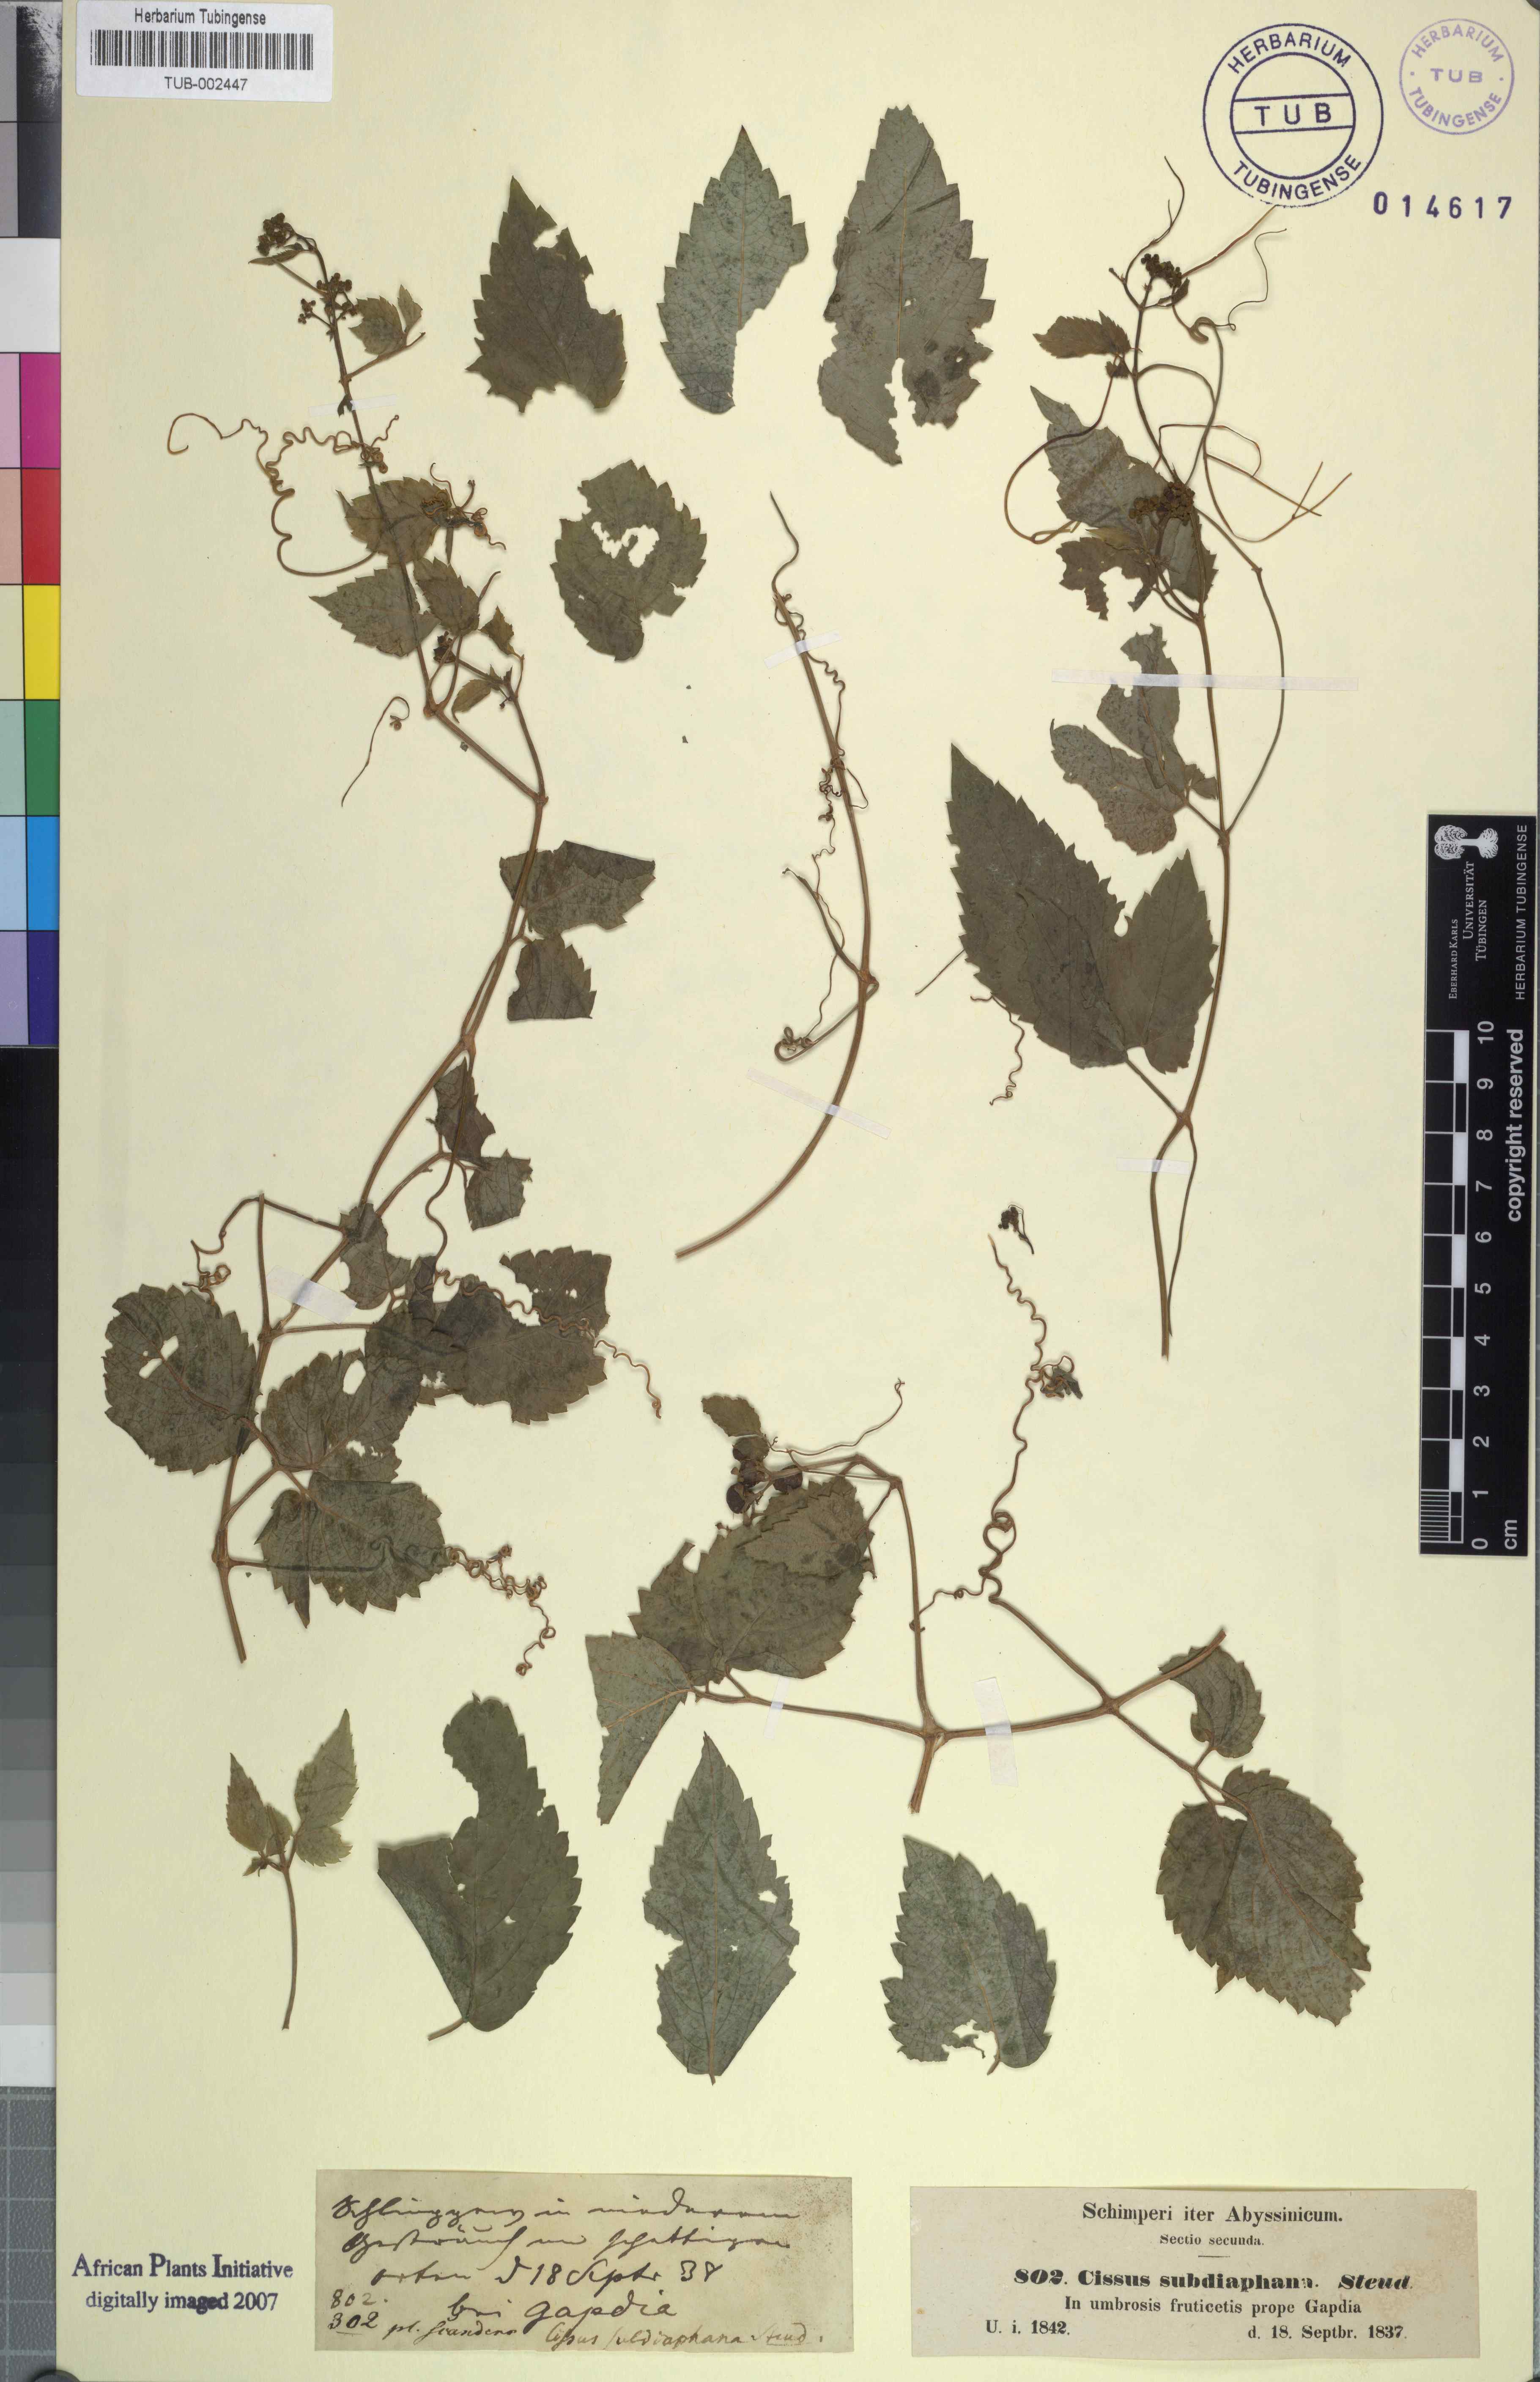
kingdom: Plantae
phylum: Tracheophyta
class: Magnoliopsida
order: Vitales
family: Vitaceae
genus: Afrocayratia
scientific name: Afrocayratia gracilis
